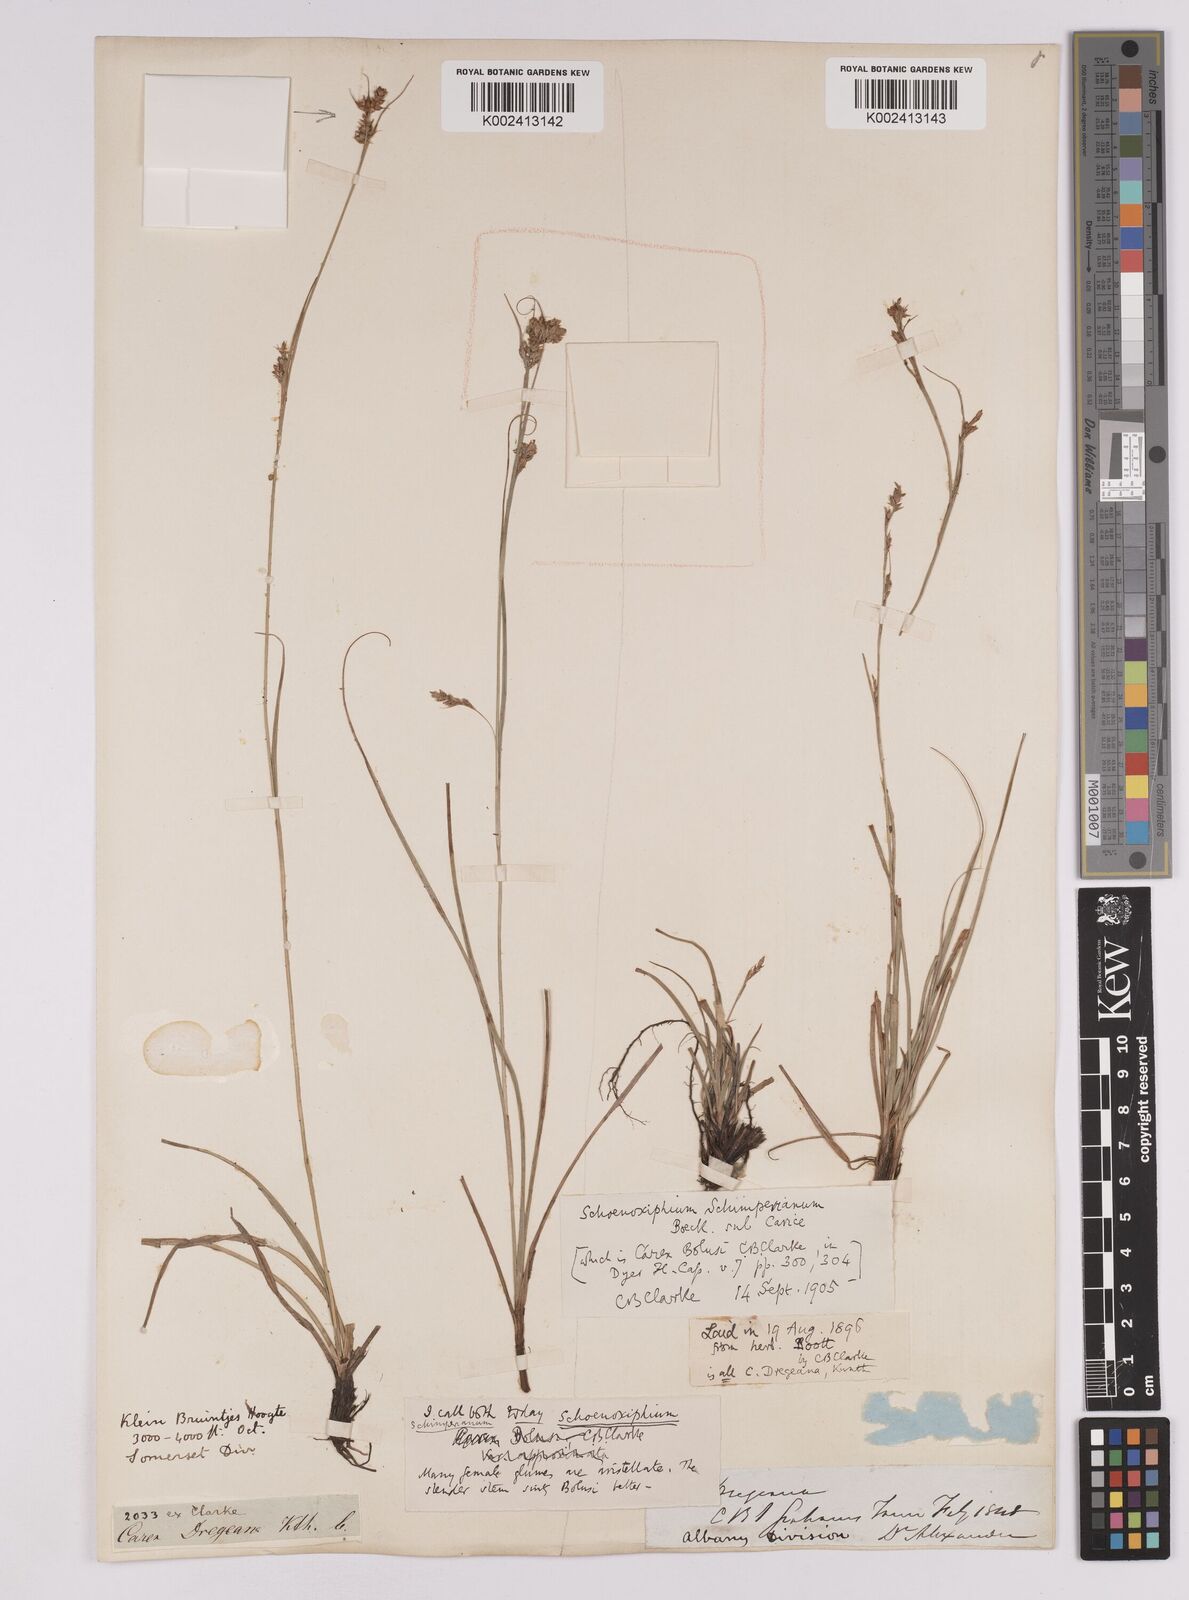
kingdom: Plantae
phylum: Tracheophyta
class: Liliopsida
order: Poales
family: Cyperaceae
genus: Carex
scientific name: Carex spartea
